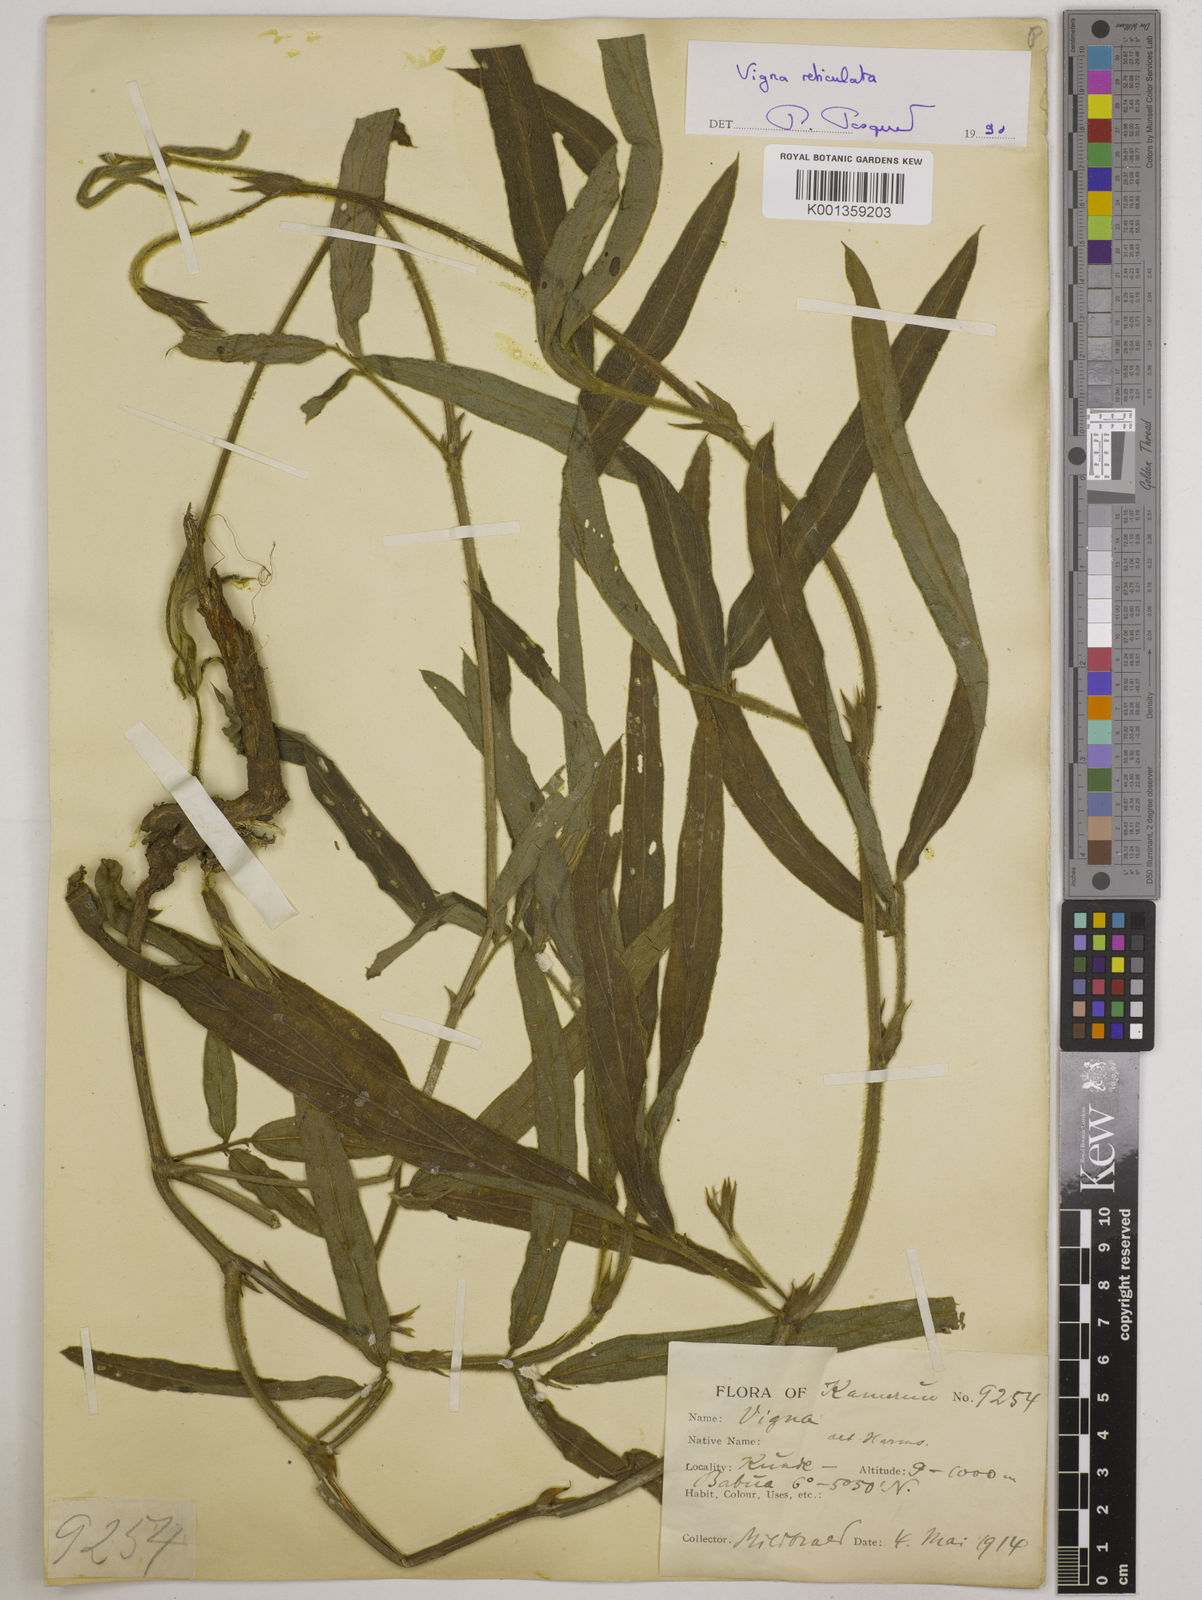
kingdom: Plantae
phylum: Tracheophyta
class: Magnoliopsida
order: Fabales
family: Fabaceae
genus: Vigna
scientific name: Vigna reticulata
